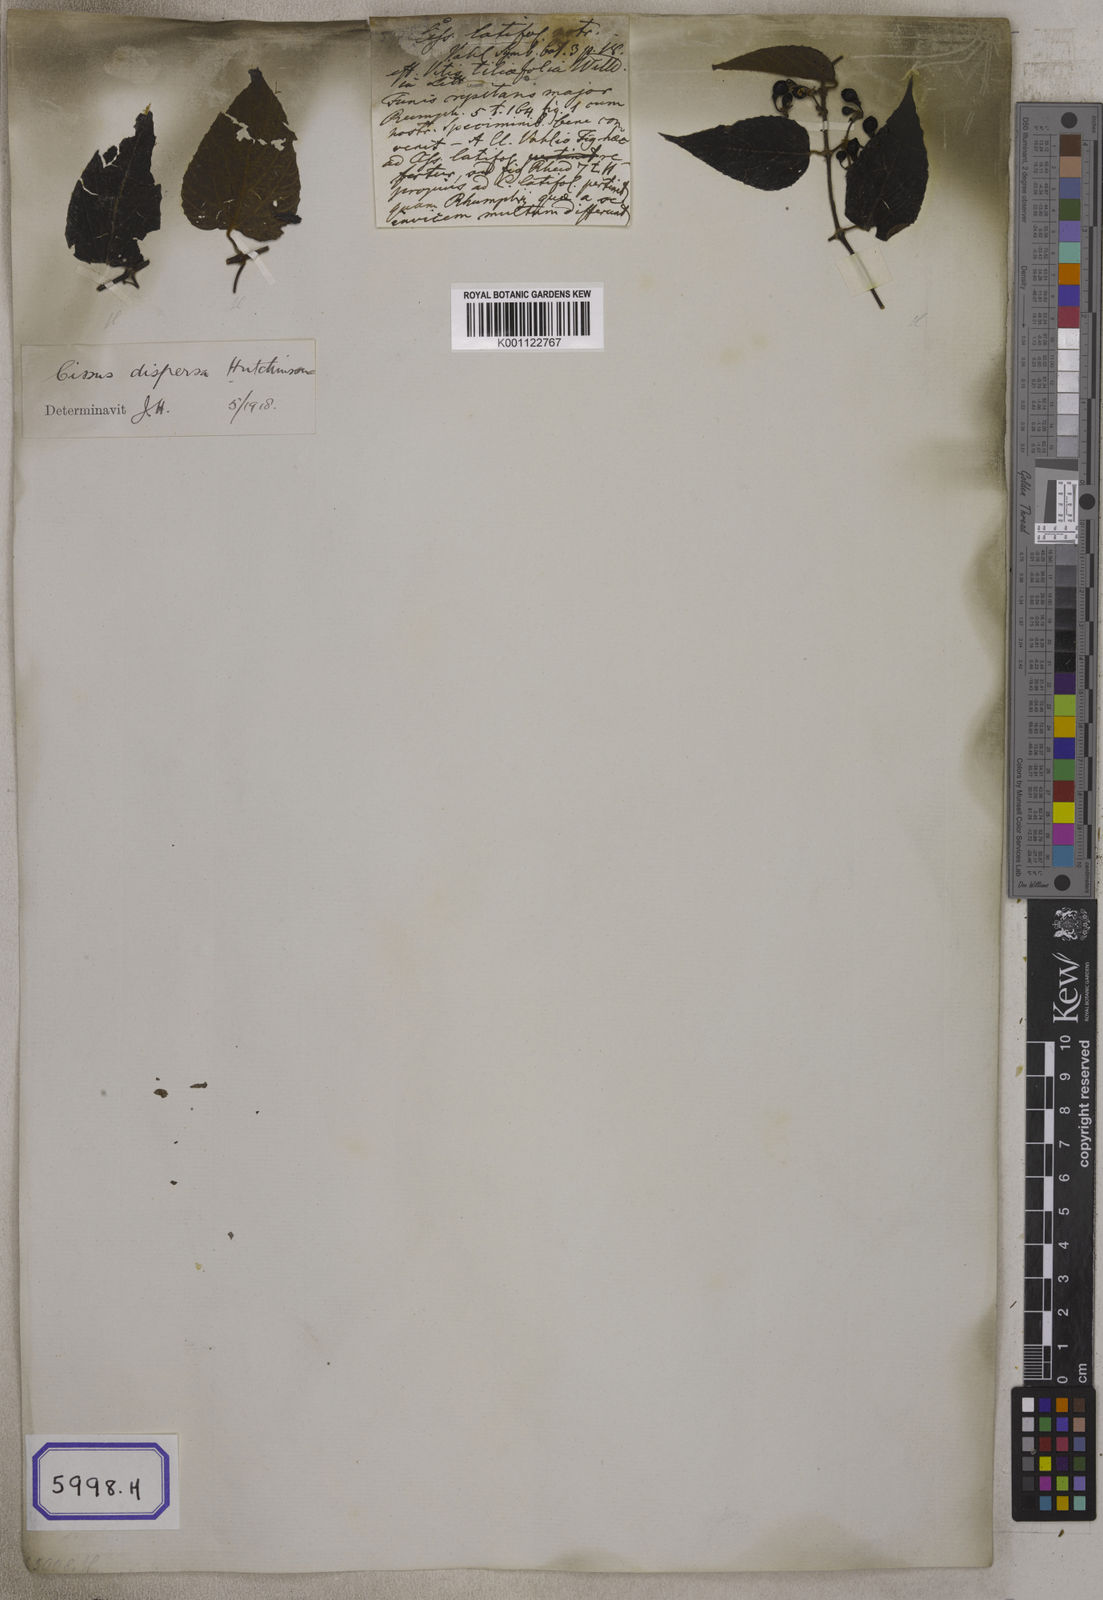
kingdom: Plantae
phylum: Tracheophyta
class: Magnoliopsida
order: Vitales
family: Vitaceae
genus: Cissus
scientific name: Cissus adnata
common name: Heart-leaf-grape
